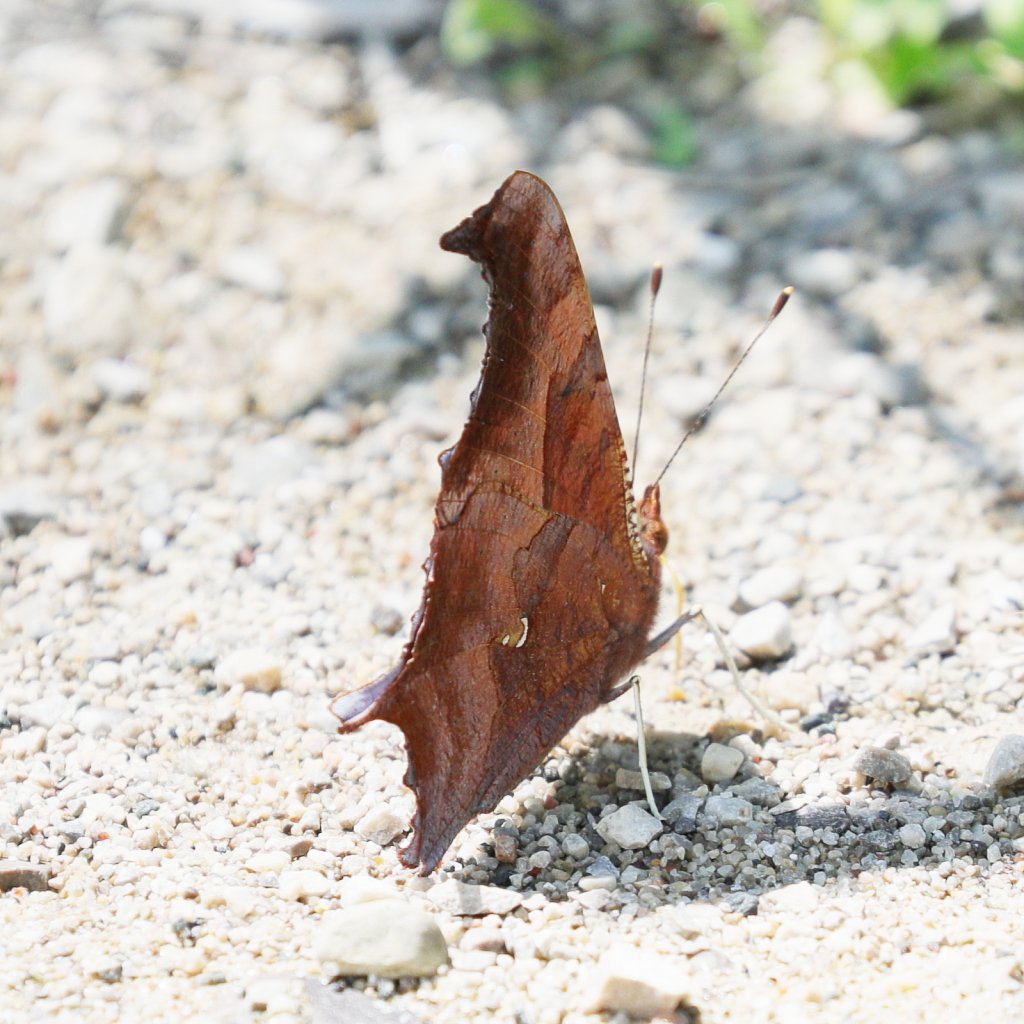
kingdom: Animalia
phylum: Arthropoda
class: Insecta
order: Lepidoptera
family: Nymphalidae
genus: Polygonia
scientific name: Polygonia interrogationis
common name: Question Mark
